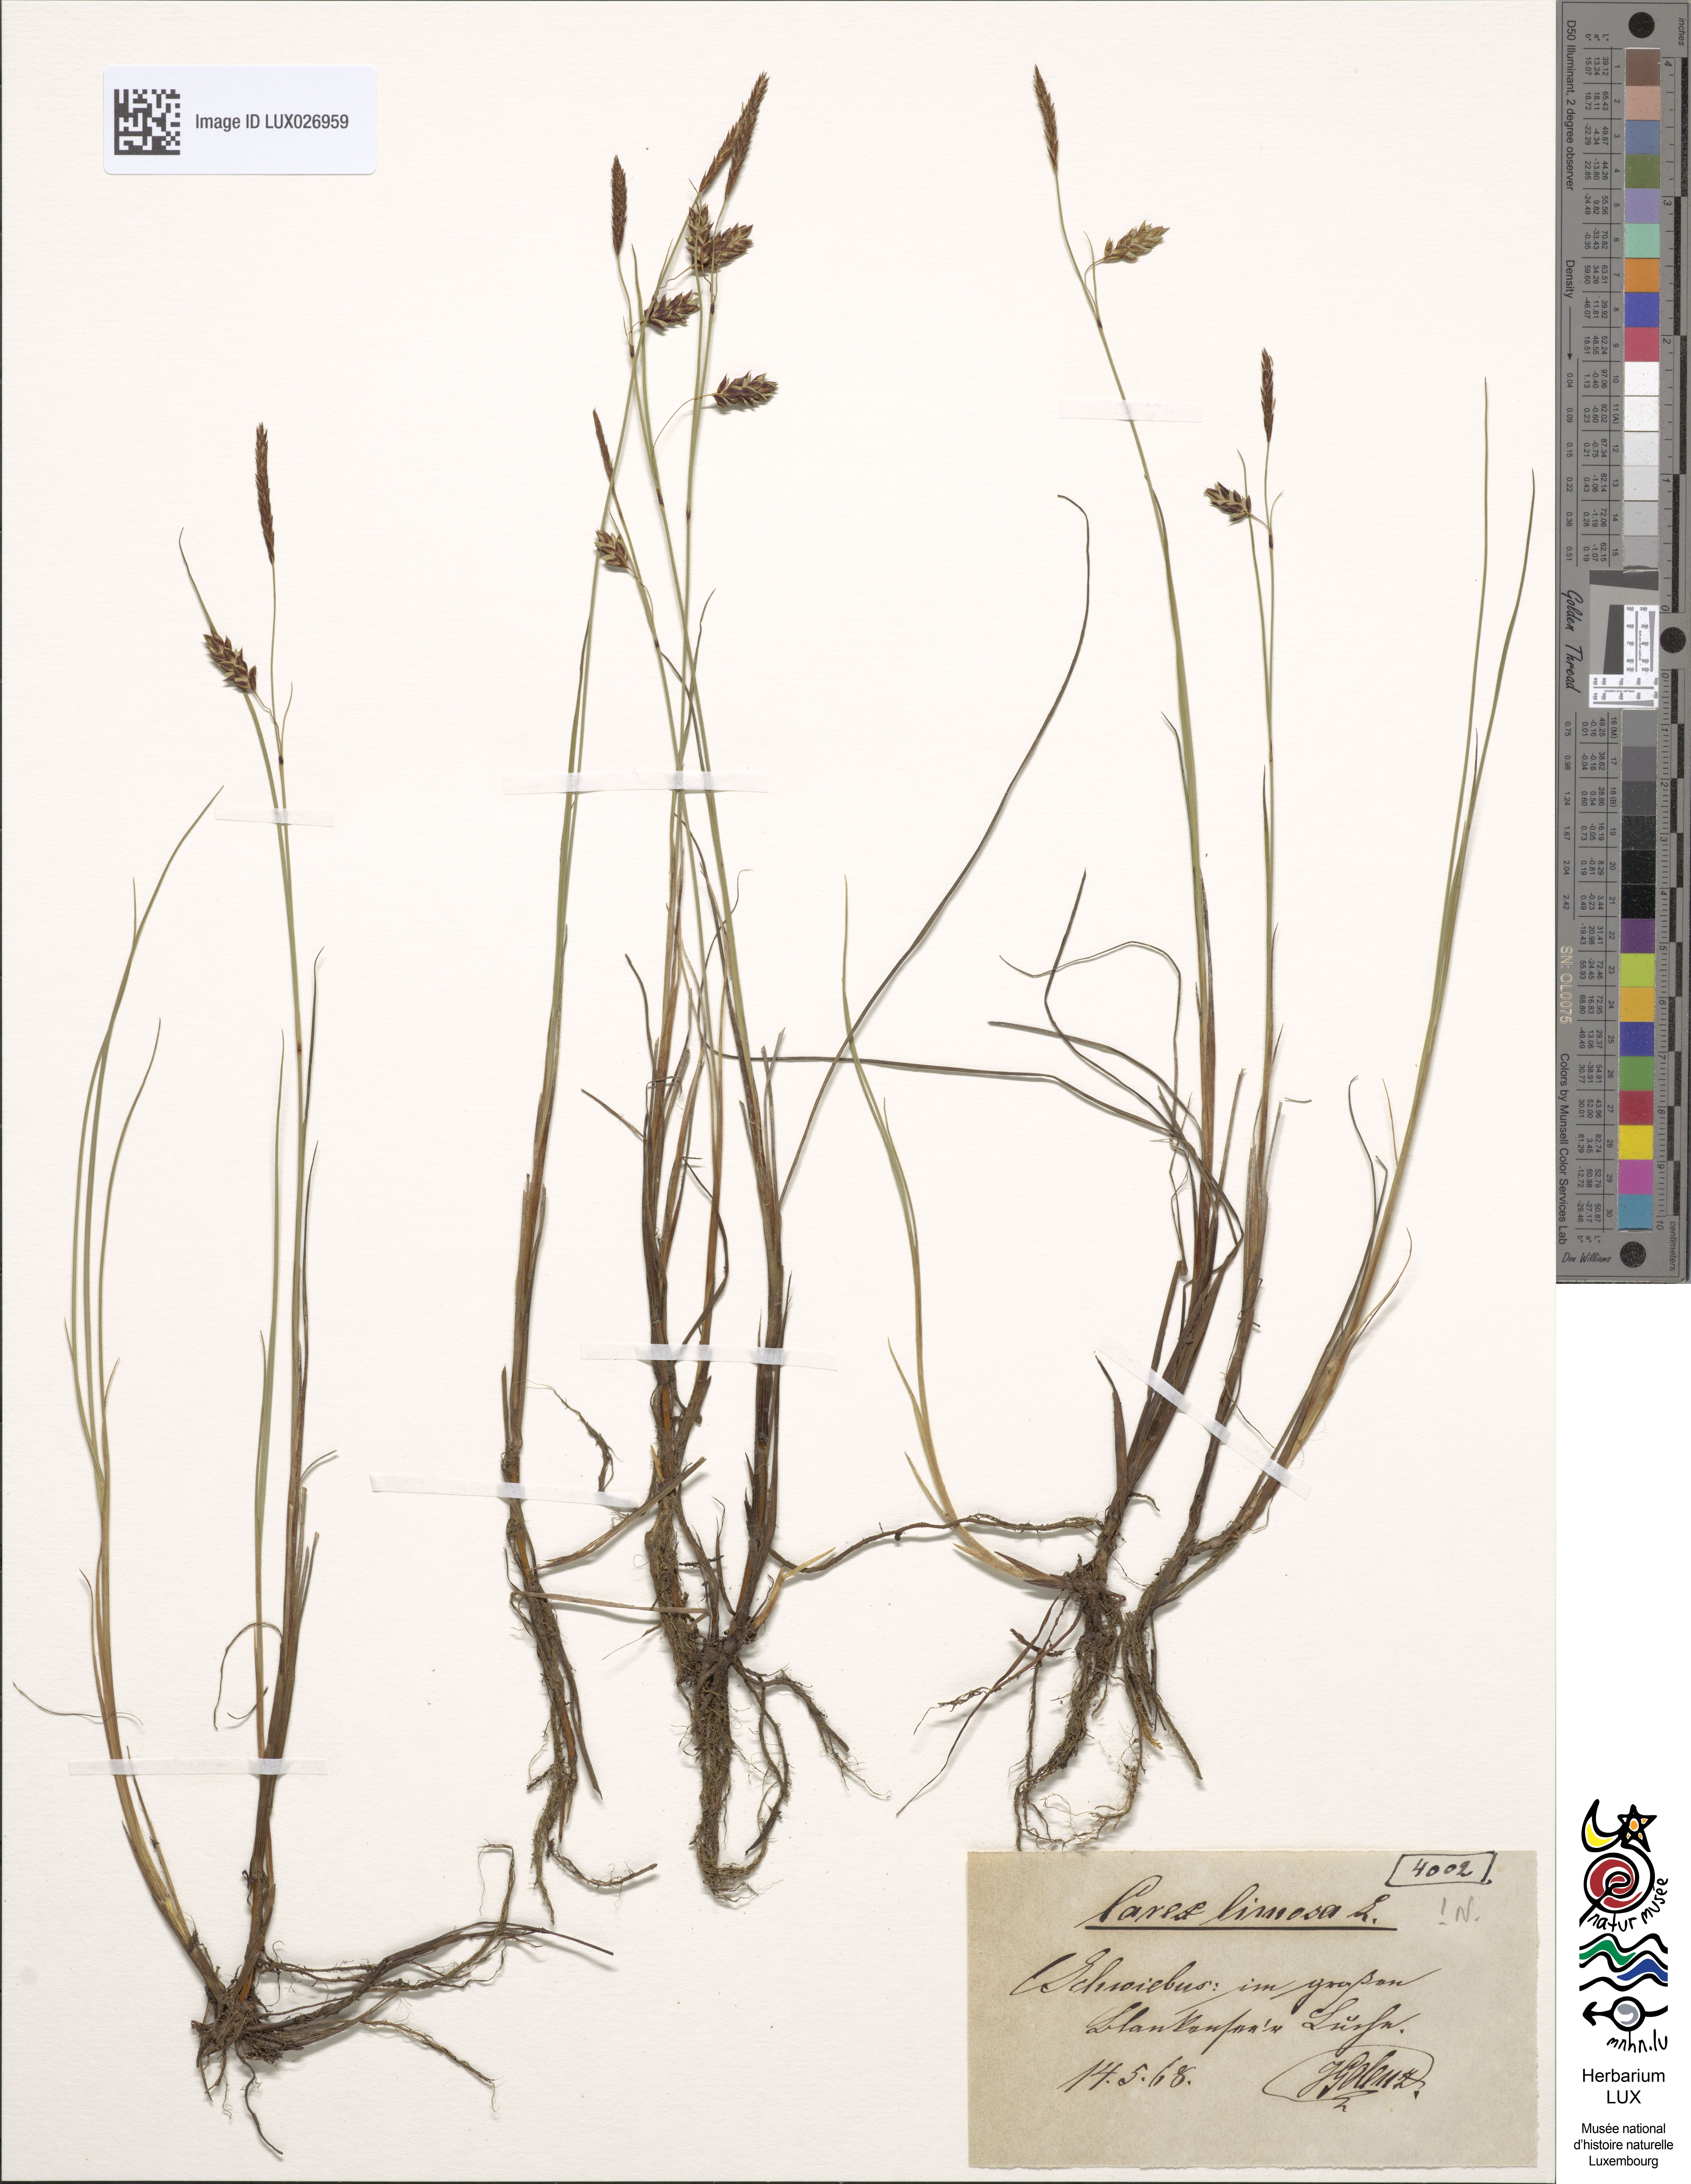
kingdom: Plantae
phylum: Tracheophyta
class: Liliopsida
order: Poales
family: Cyperaceae
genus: Carex
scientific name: Carex limosa
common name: Bog sedge
